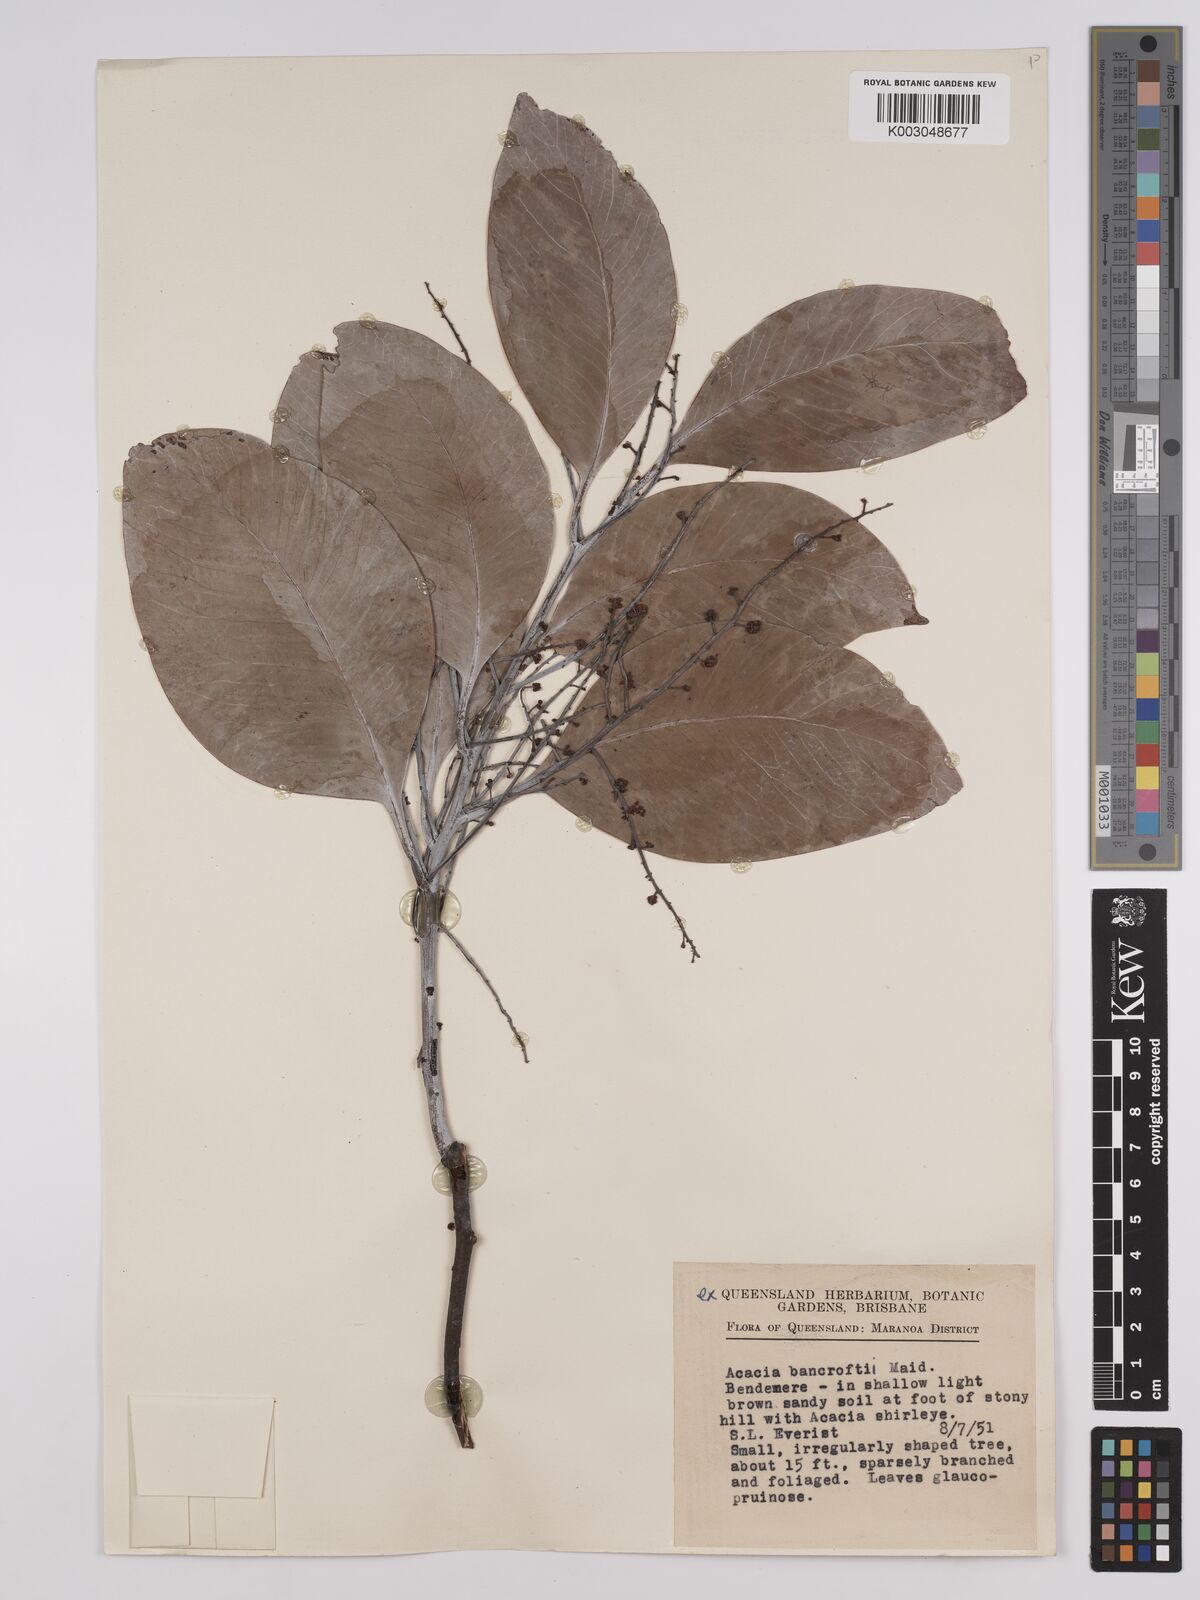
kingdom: Plantae
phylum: Tracheophyta
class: Magnoliopsida
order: Fabales
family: Fabaceae
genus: Acacia
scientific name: Acacia
